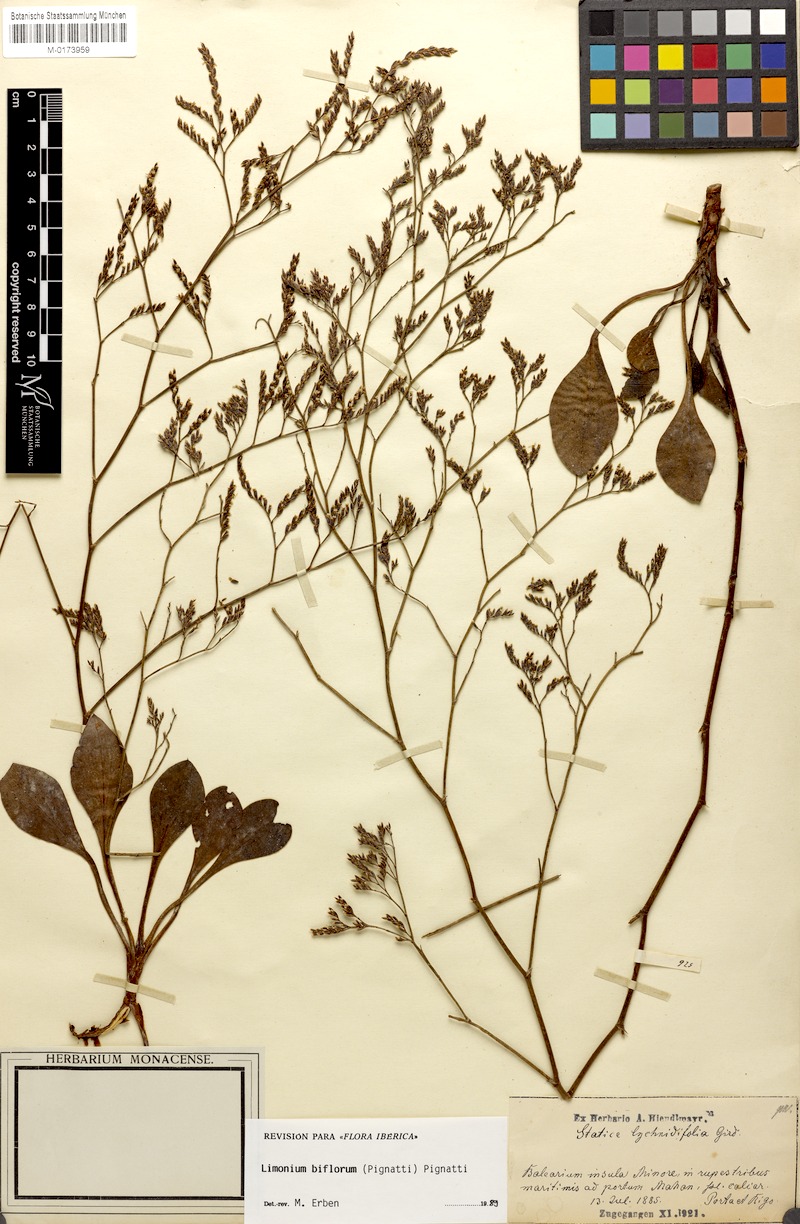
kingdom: Plantae
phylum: Tracheophyta
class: Magnoliopsida
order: Caryophyllales
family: Plumbaginaceae
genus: Limonium
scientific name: Limonium biflorum
